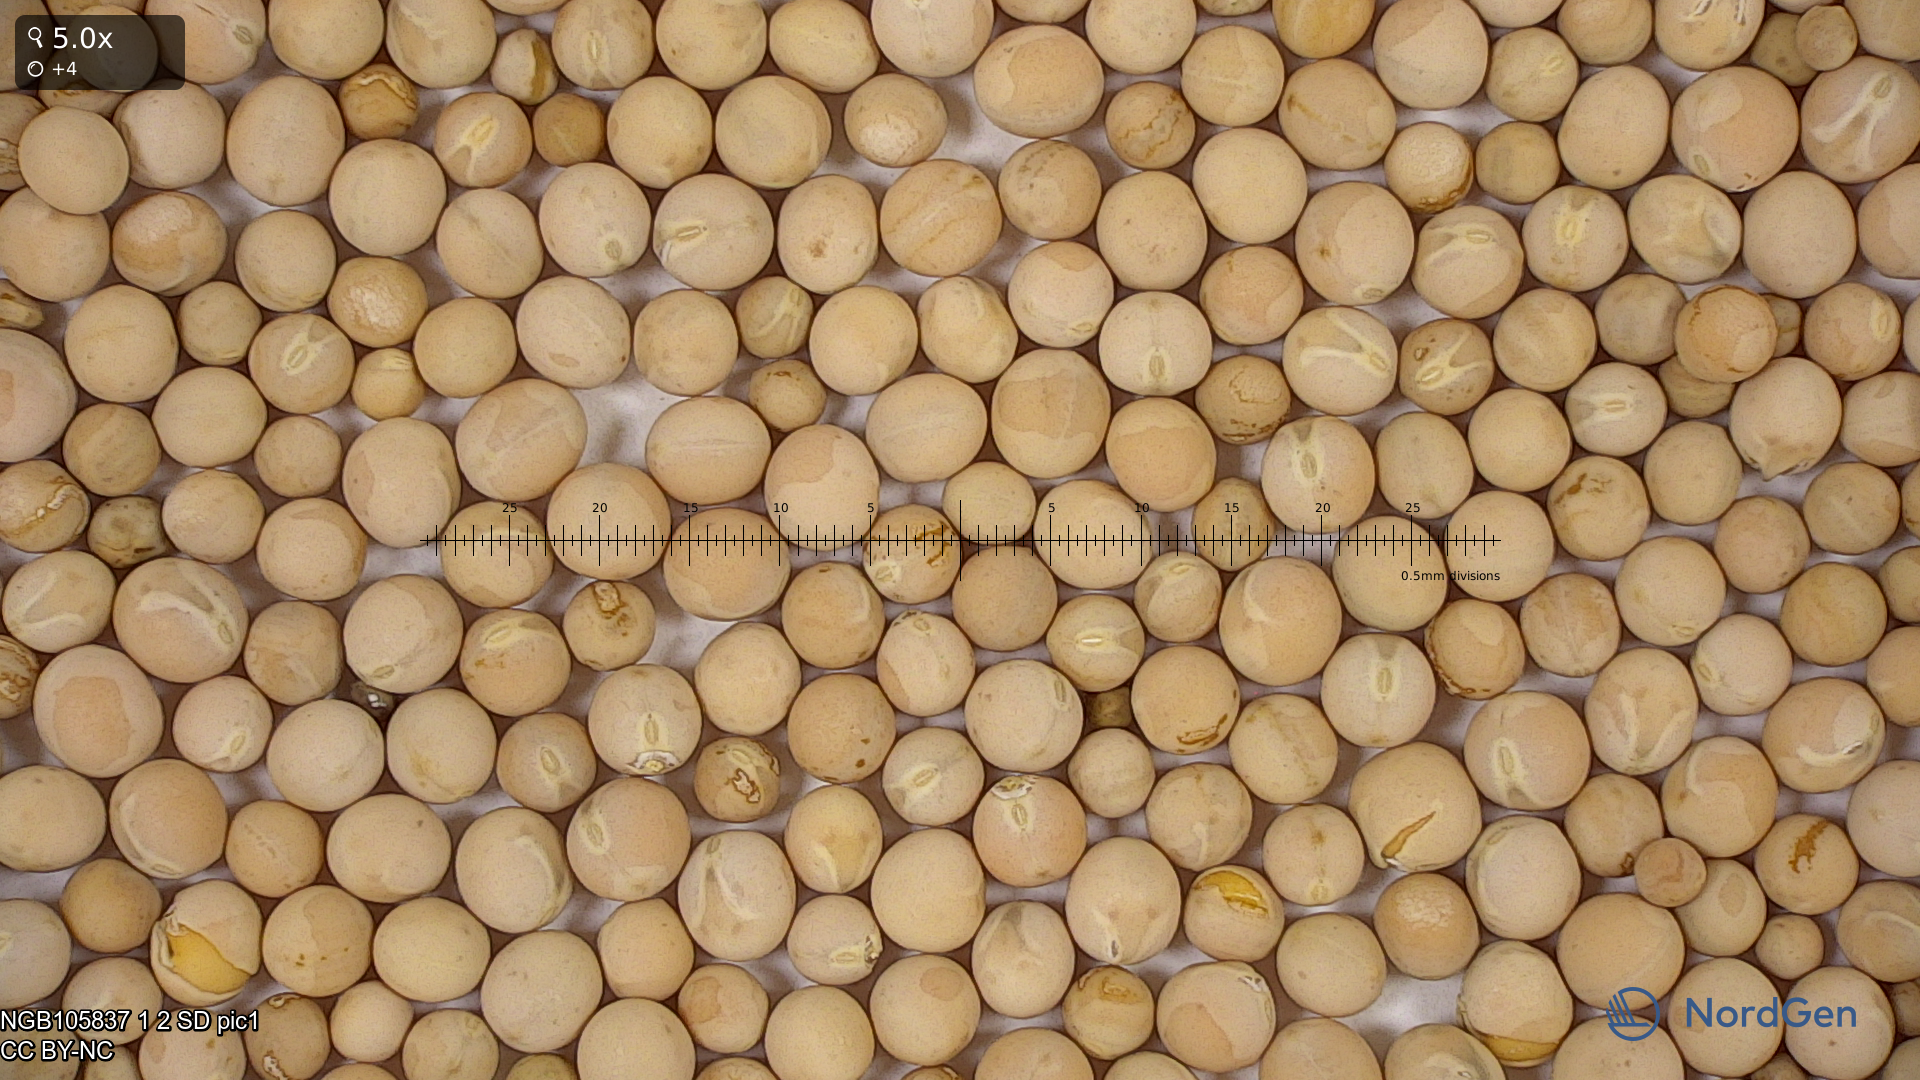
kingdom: Plantae
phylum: Tracheophyta
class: Magnoliopsida
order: Fabales
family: Fabaceae
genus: Lathyrus
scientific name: Lathyrus oleraceus
